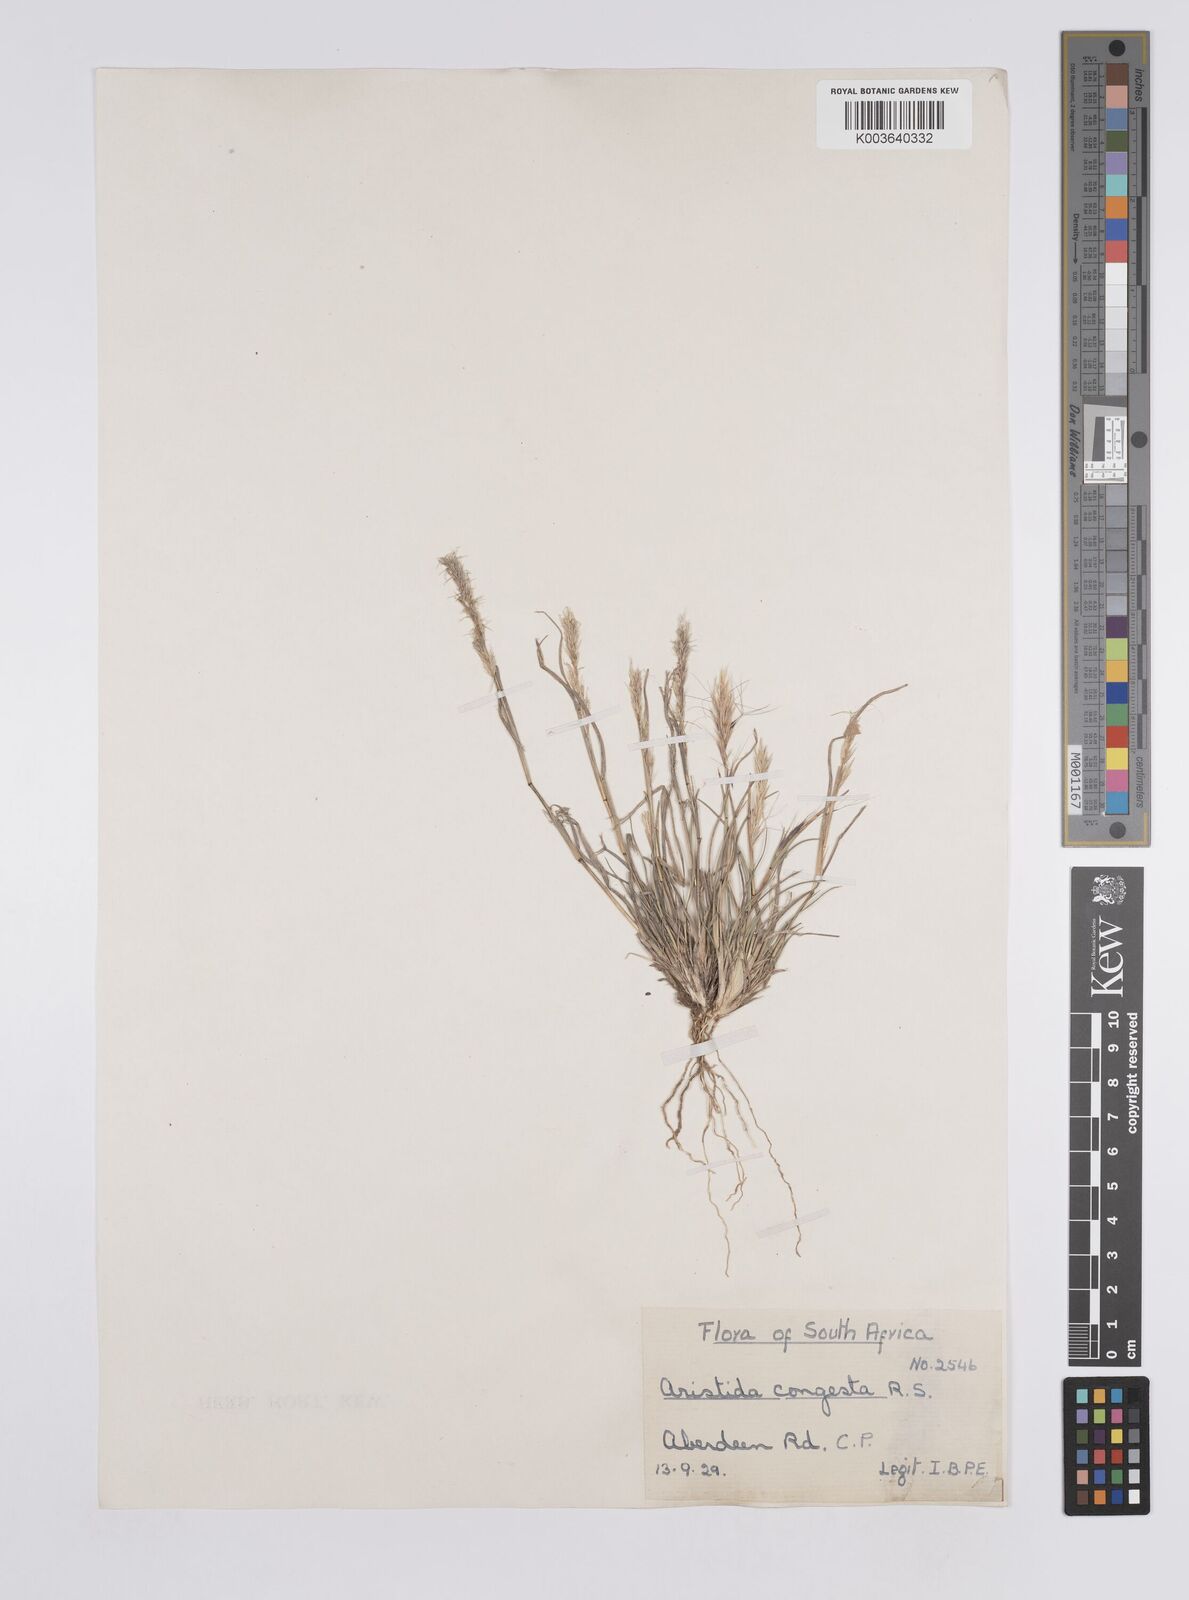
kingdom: Plantae
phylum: Tracheophyta
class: Liliopsida
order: Poales
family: Poaceae
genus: Aristida
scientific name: Aristida congesta
